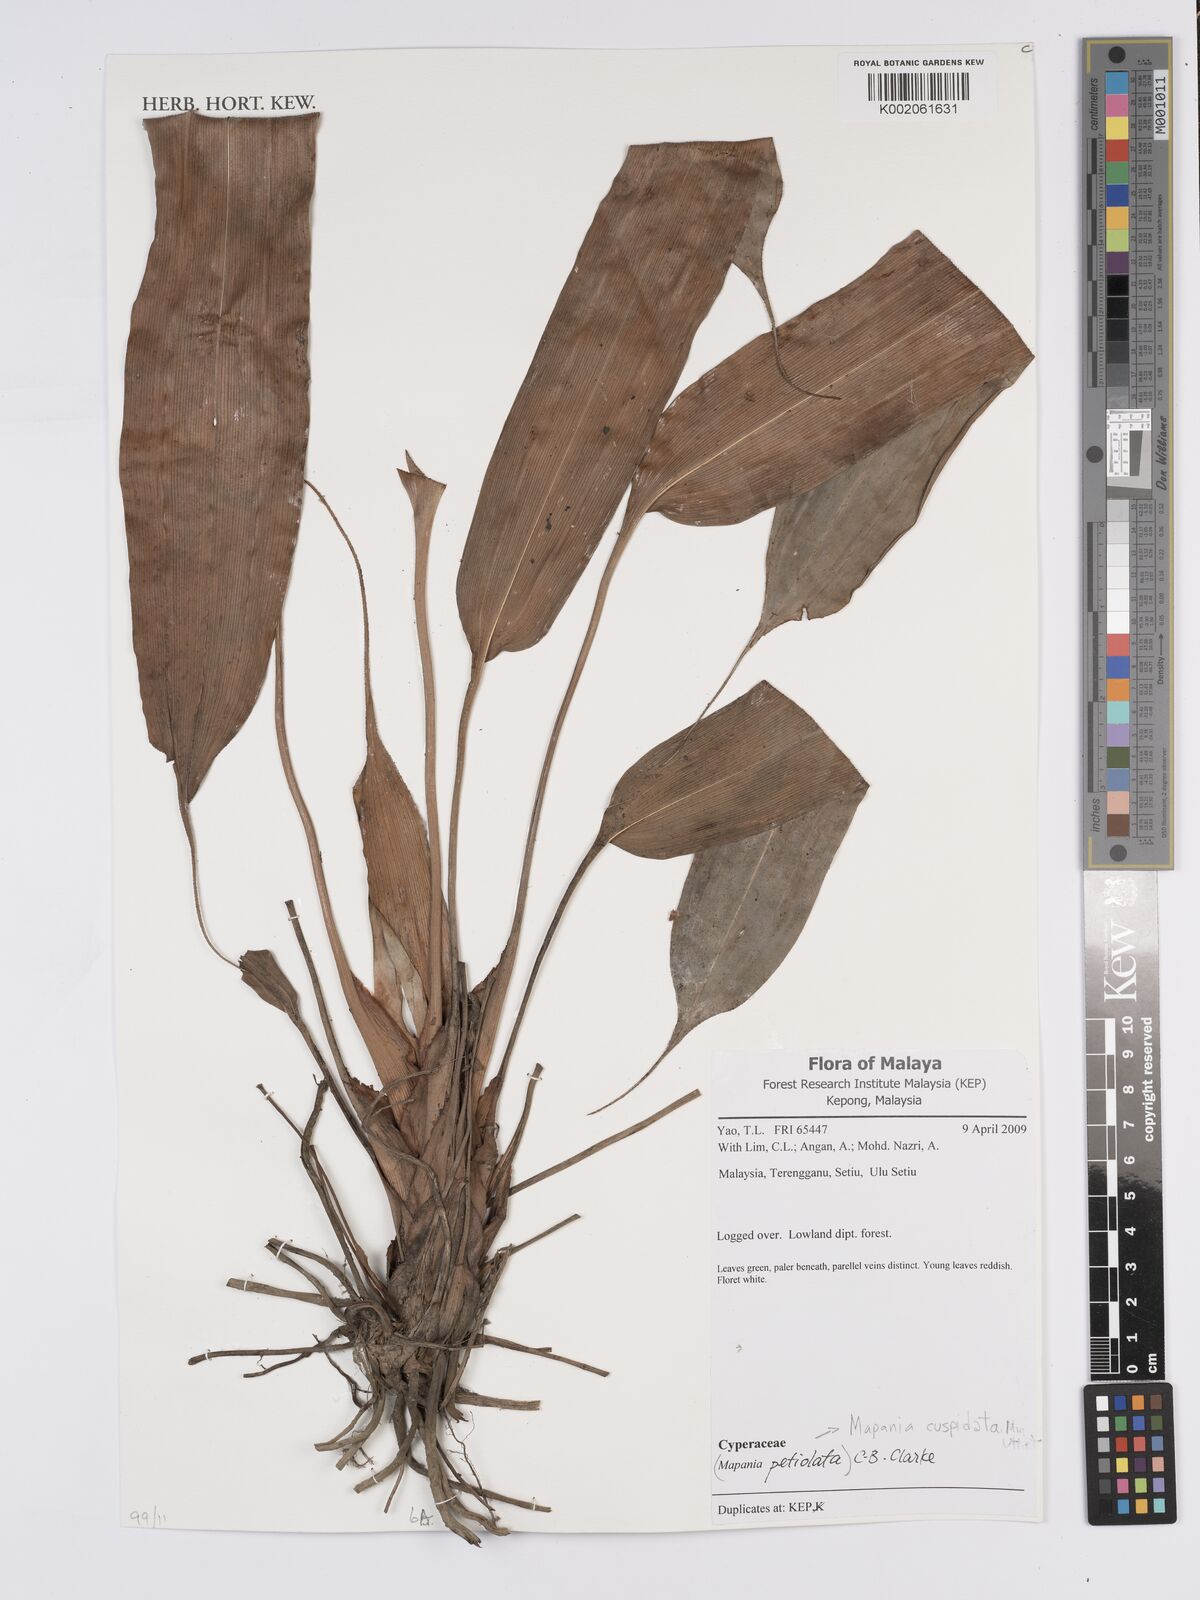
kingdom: Plantae
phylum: Tracheophyta
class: Liliopsida
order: Poales
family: Cyperaceae
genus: Mapania
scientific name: Mapania cuspidata
